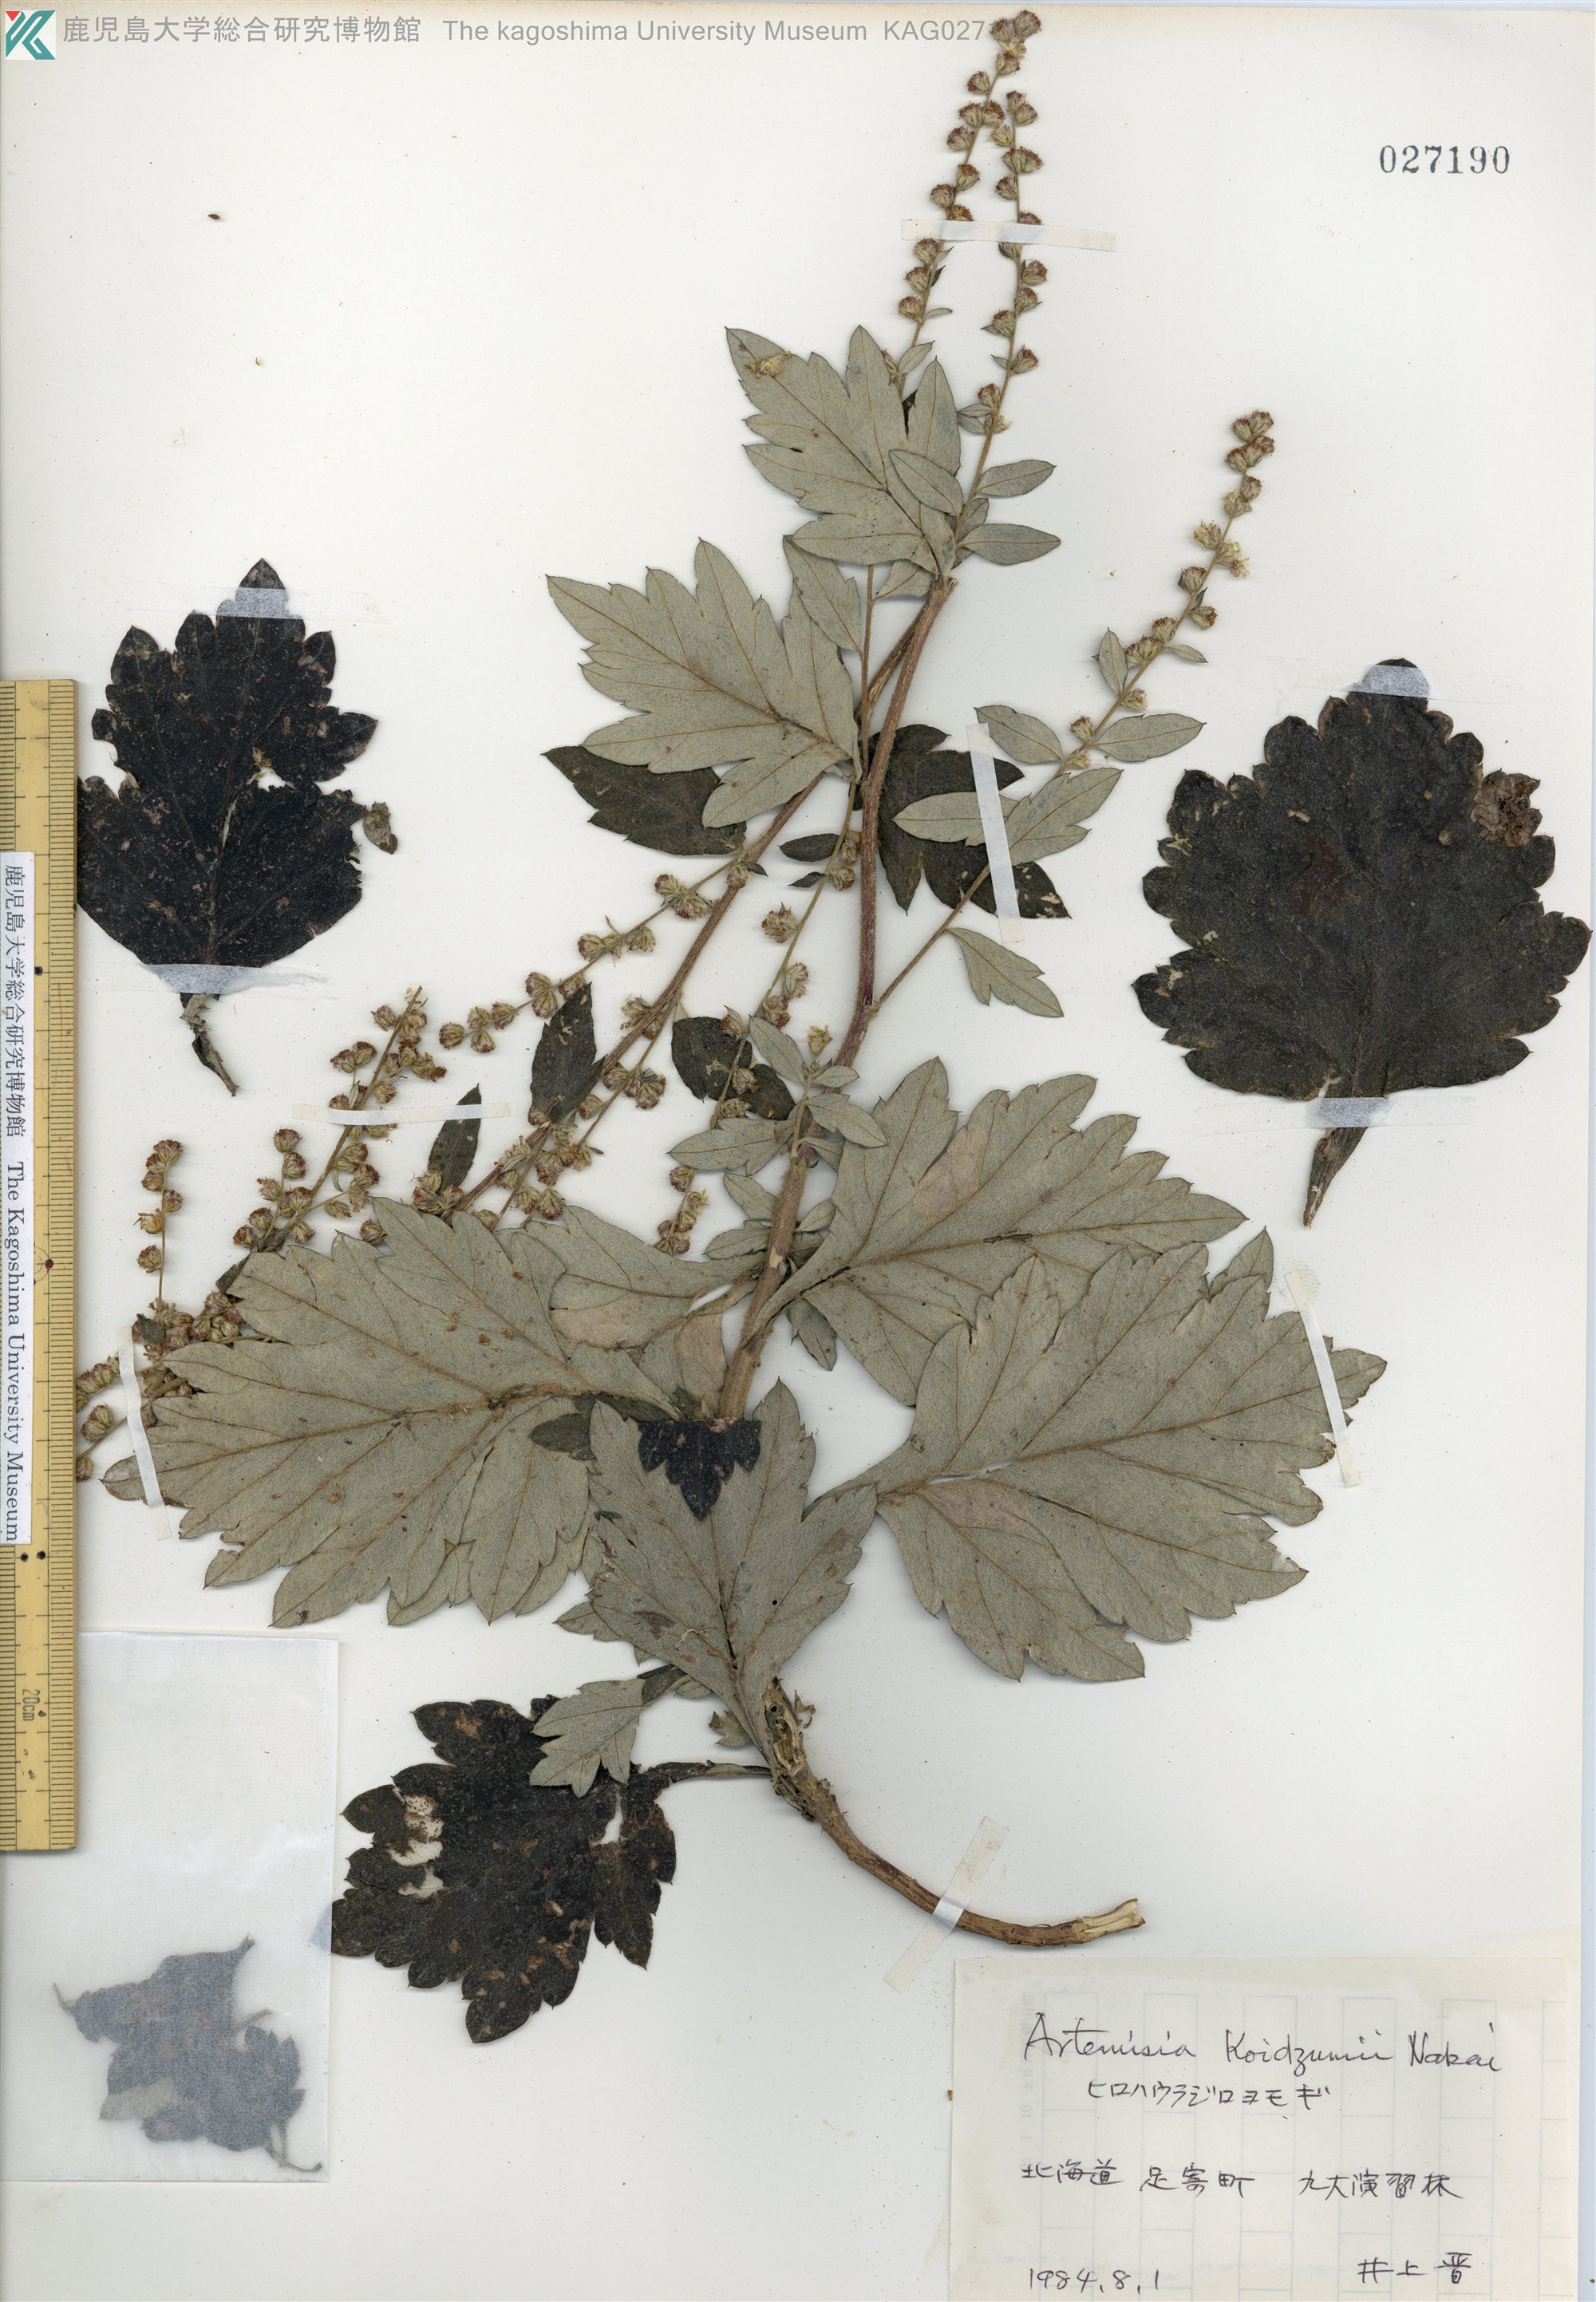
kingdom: Plantae
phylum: Tracheophyta
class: Magnoliopsida
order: Asterales
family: Asteraceae
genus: Artemisia
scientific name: Artemisia koidzumii
